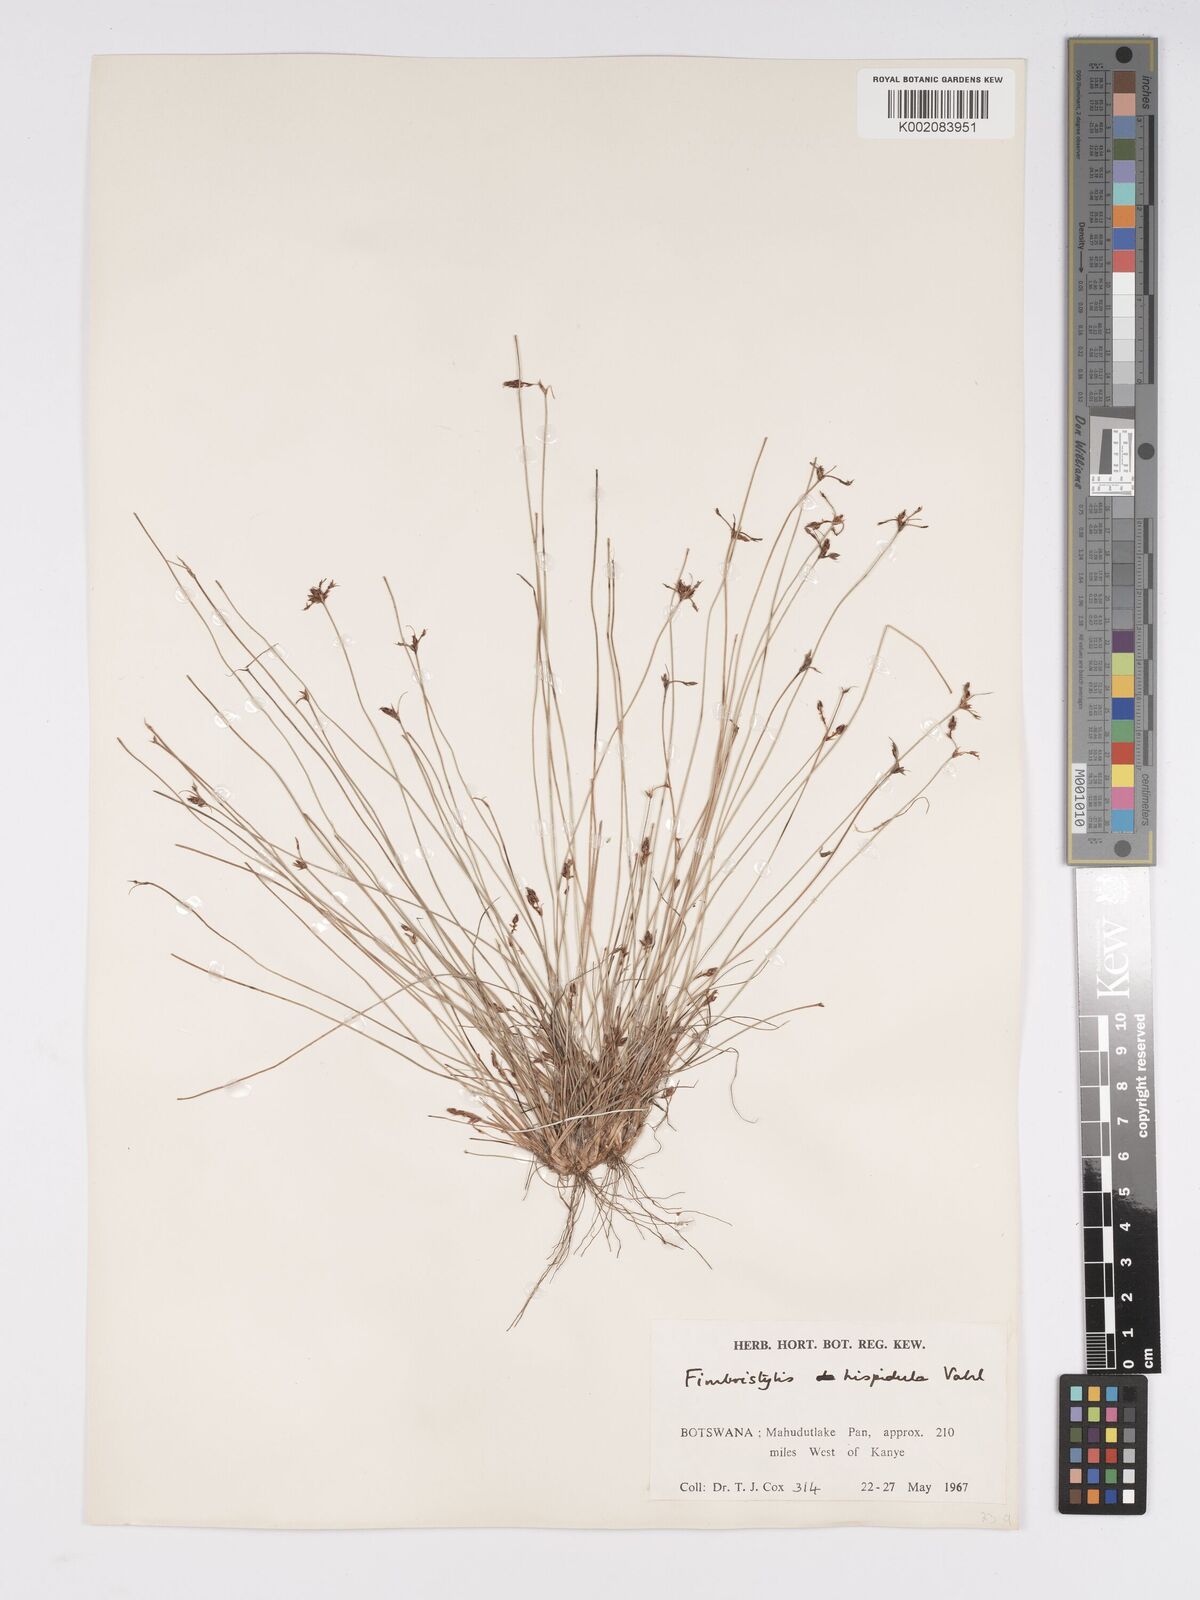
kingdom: Plantae
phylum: Tracheophyta
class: Liliopsida
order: Poales
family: Cyperaceae
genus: Bulbostylis
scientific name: Bulbostylis hispidula
